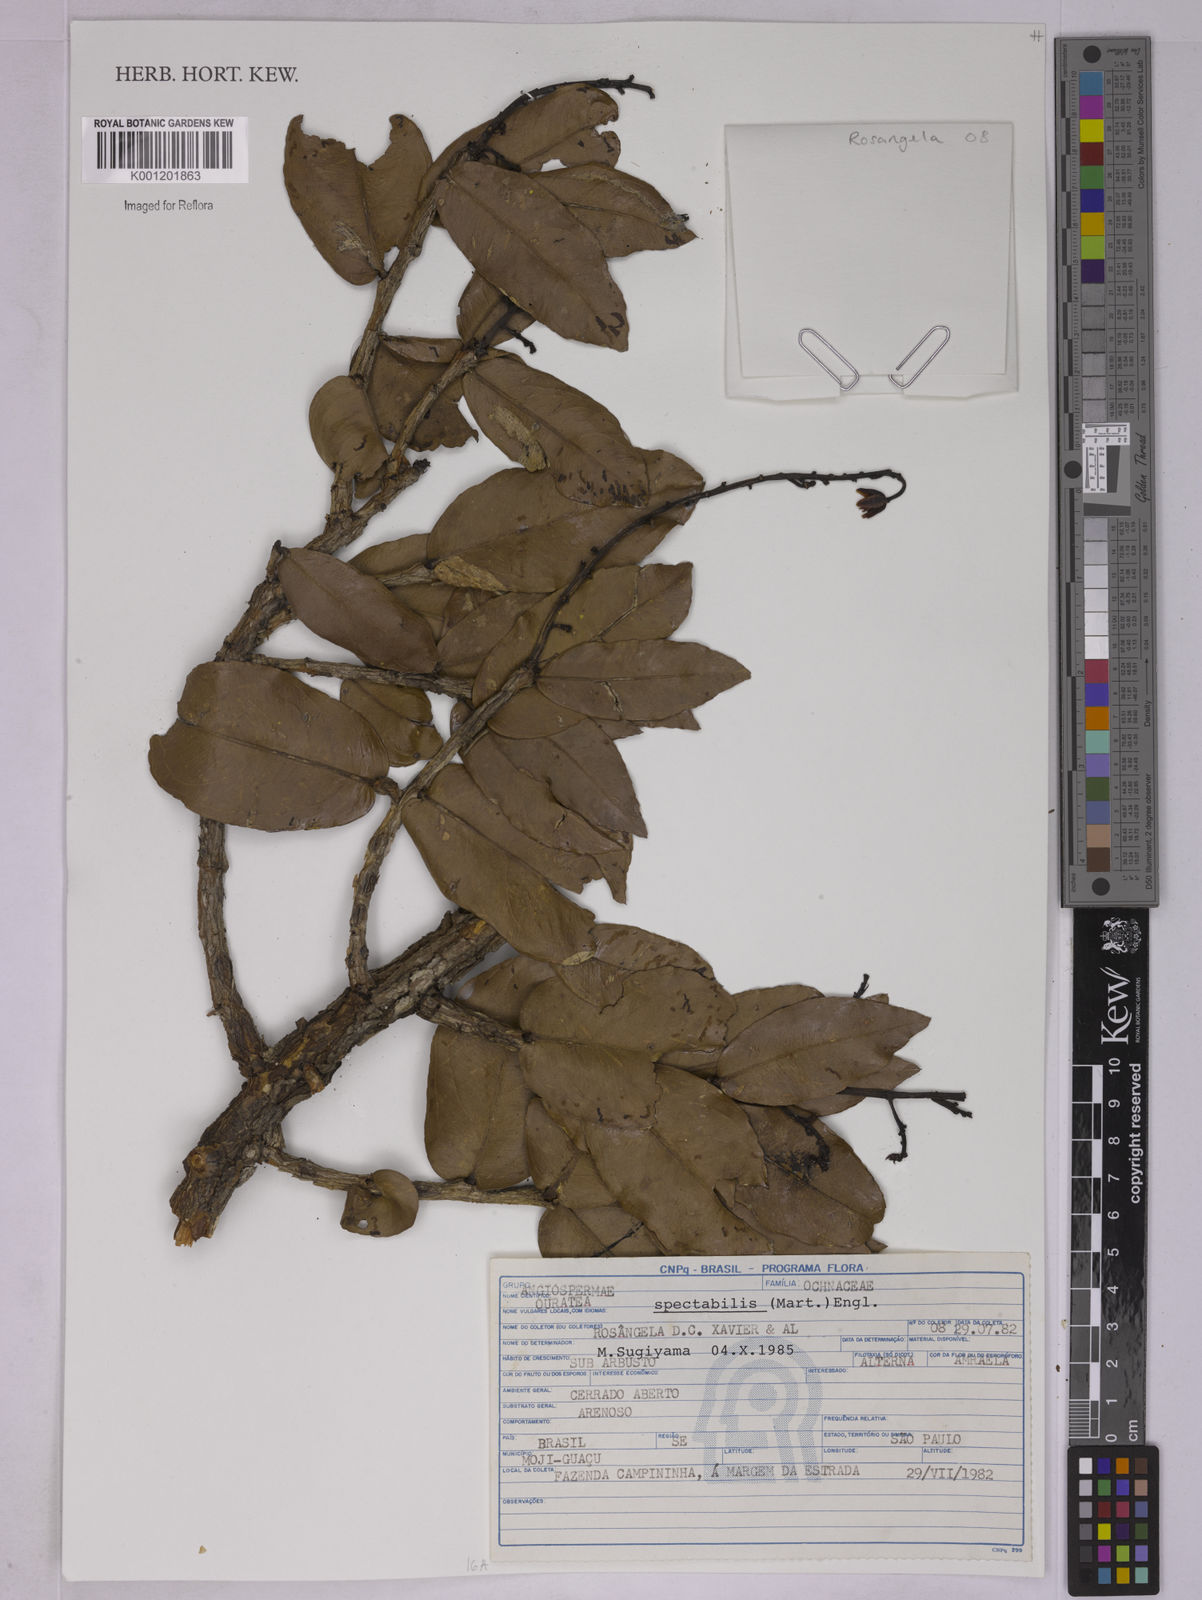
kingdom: Plantae
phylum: Tracheophyta
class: Magnoliopsida
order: Malpighiales
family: Ochnaceae
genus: Ouratea
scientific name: Ouratea spectabilis
